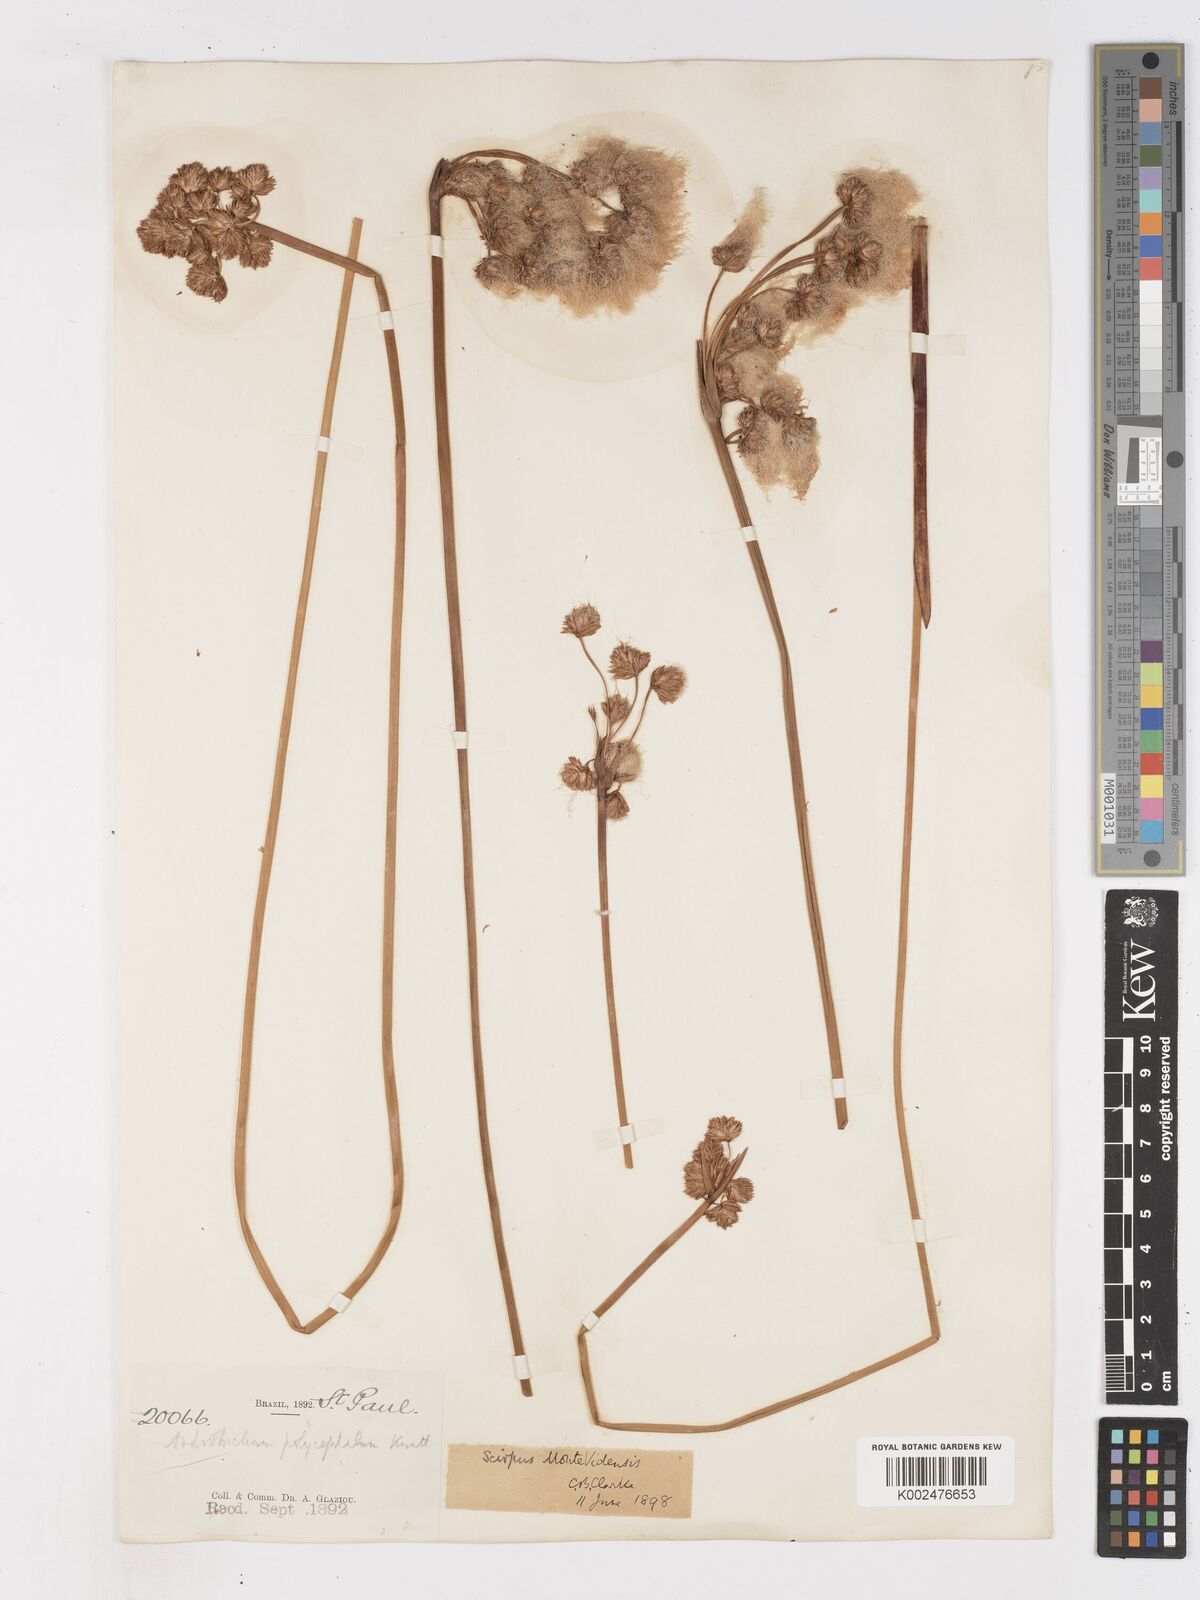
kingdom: Plantae
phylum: Tracheophyta
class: Liliopsida
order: Poales
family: Cyperaceae
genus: Cyperus
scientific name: Cyperus
